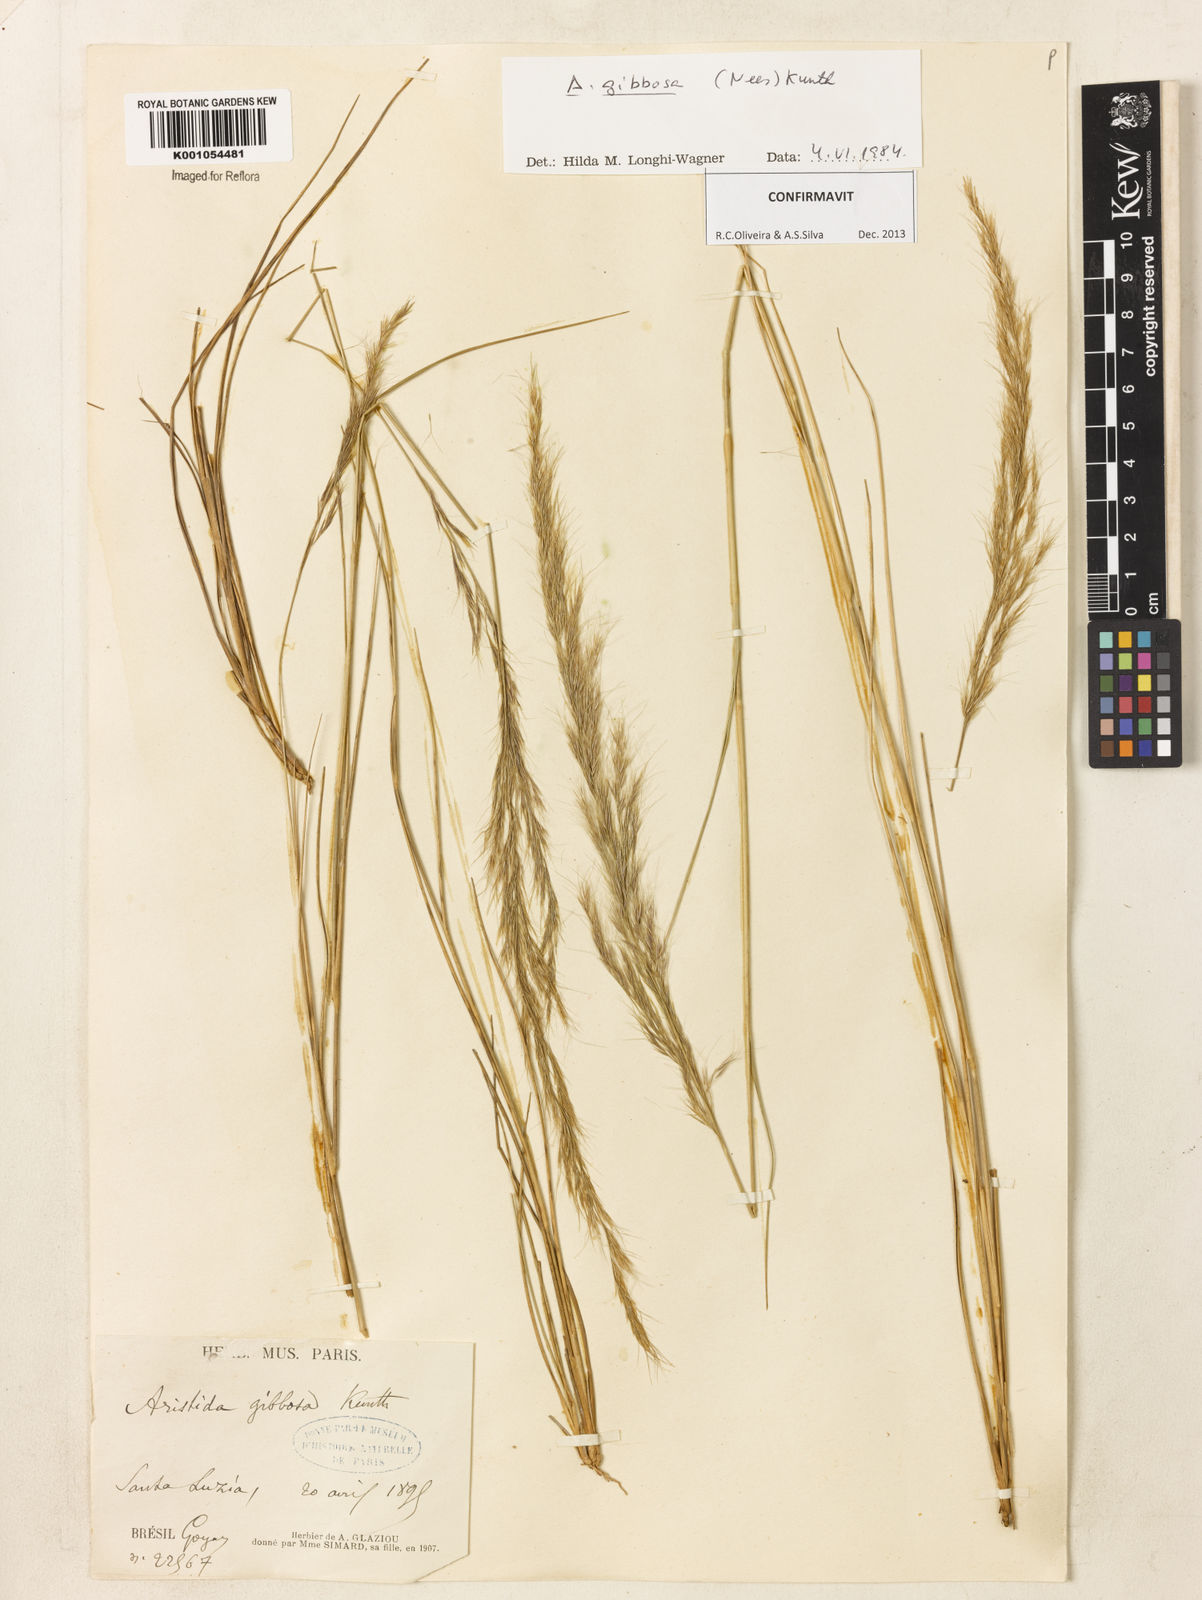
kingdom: Plantae
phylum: Tracheophyta
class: Liliopsida
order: Poales
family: Poaceae
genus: Aristida
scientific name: Aristida gibbosa
